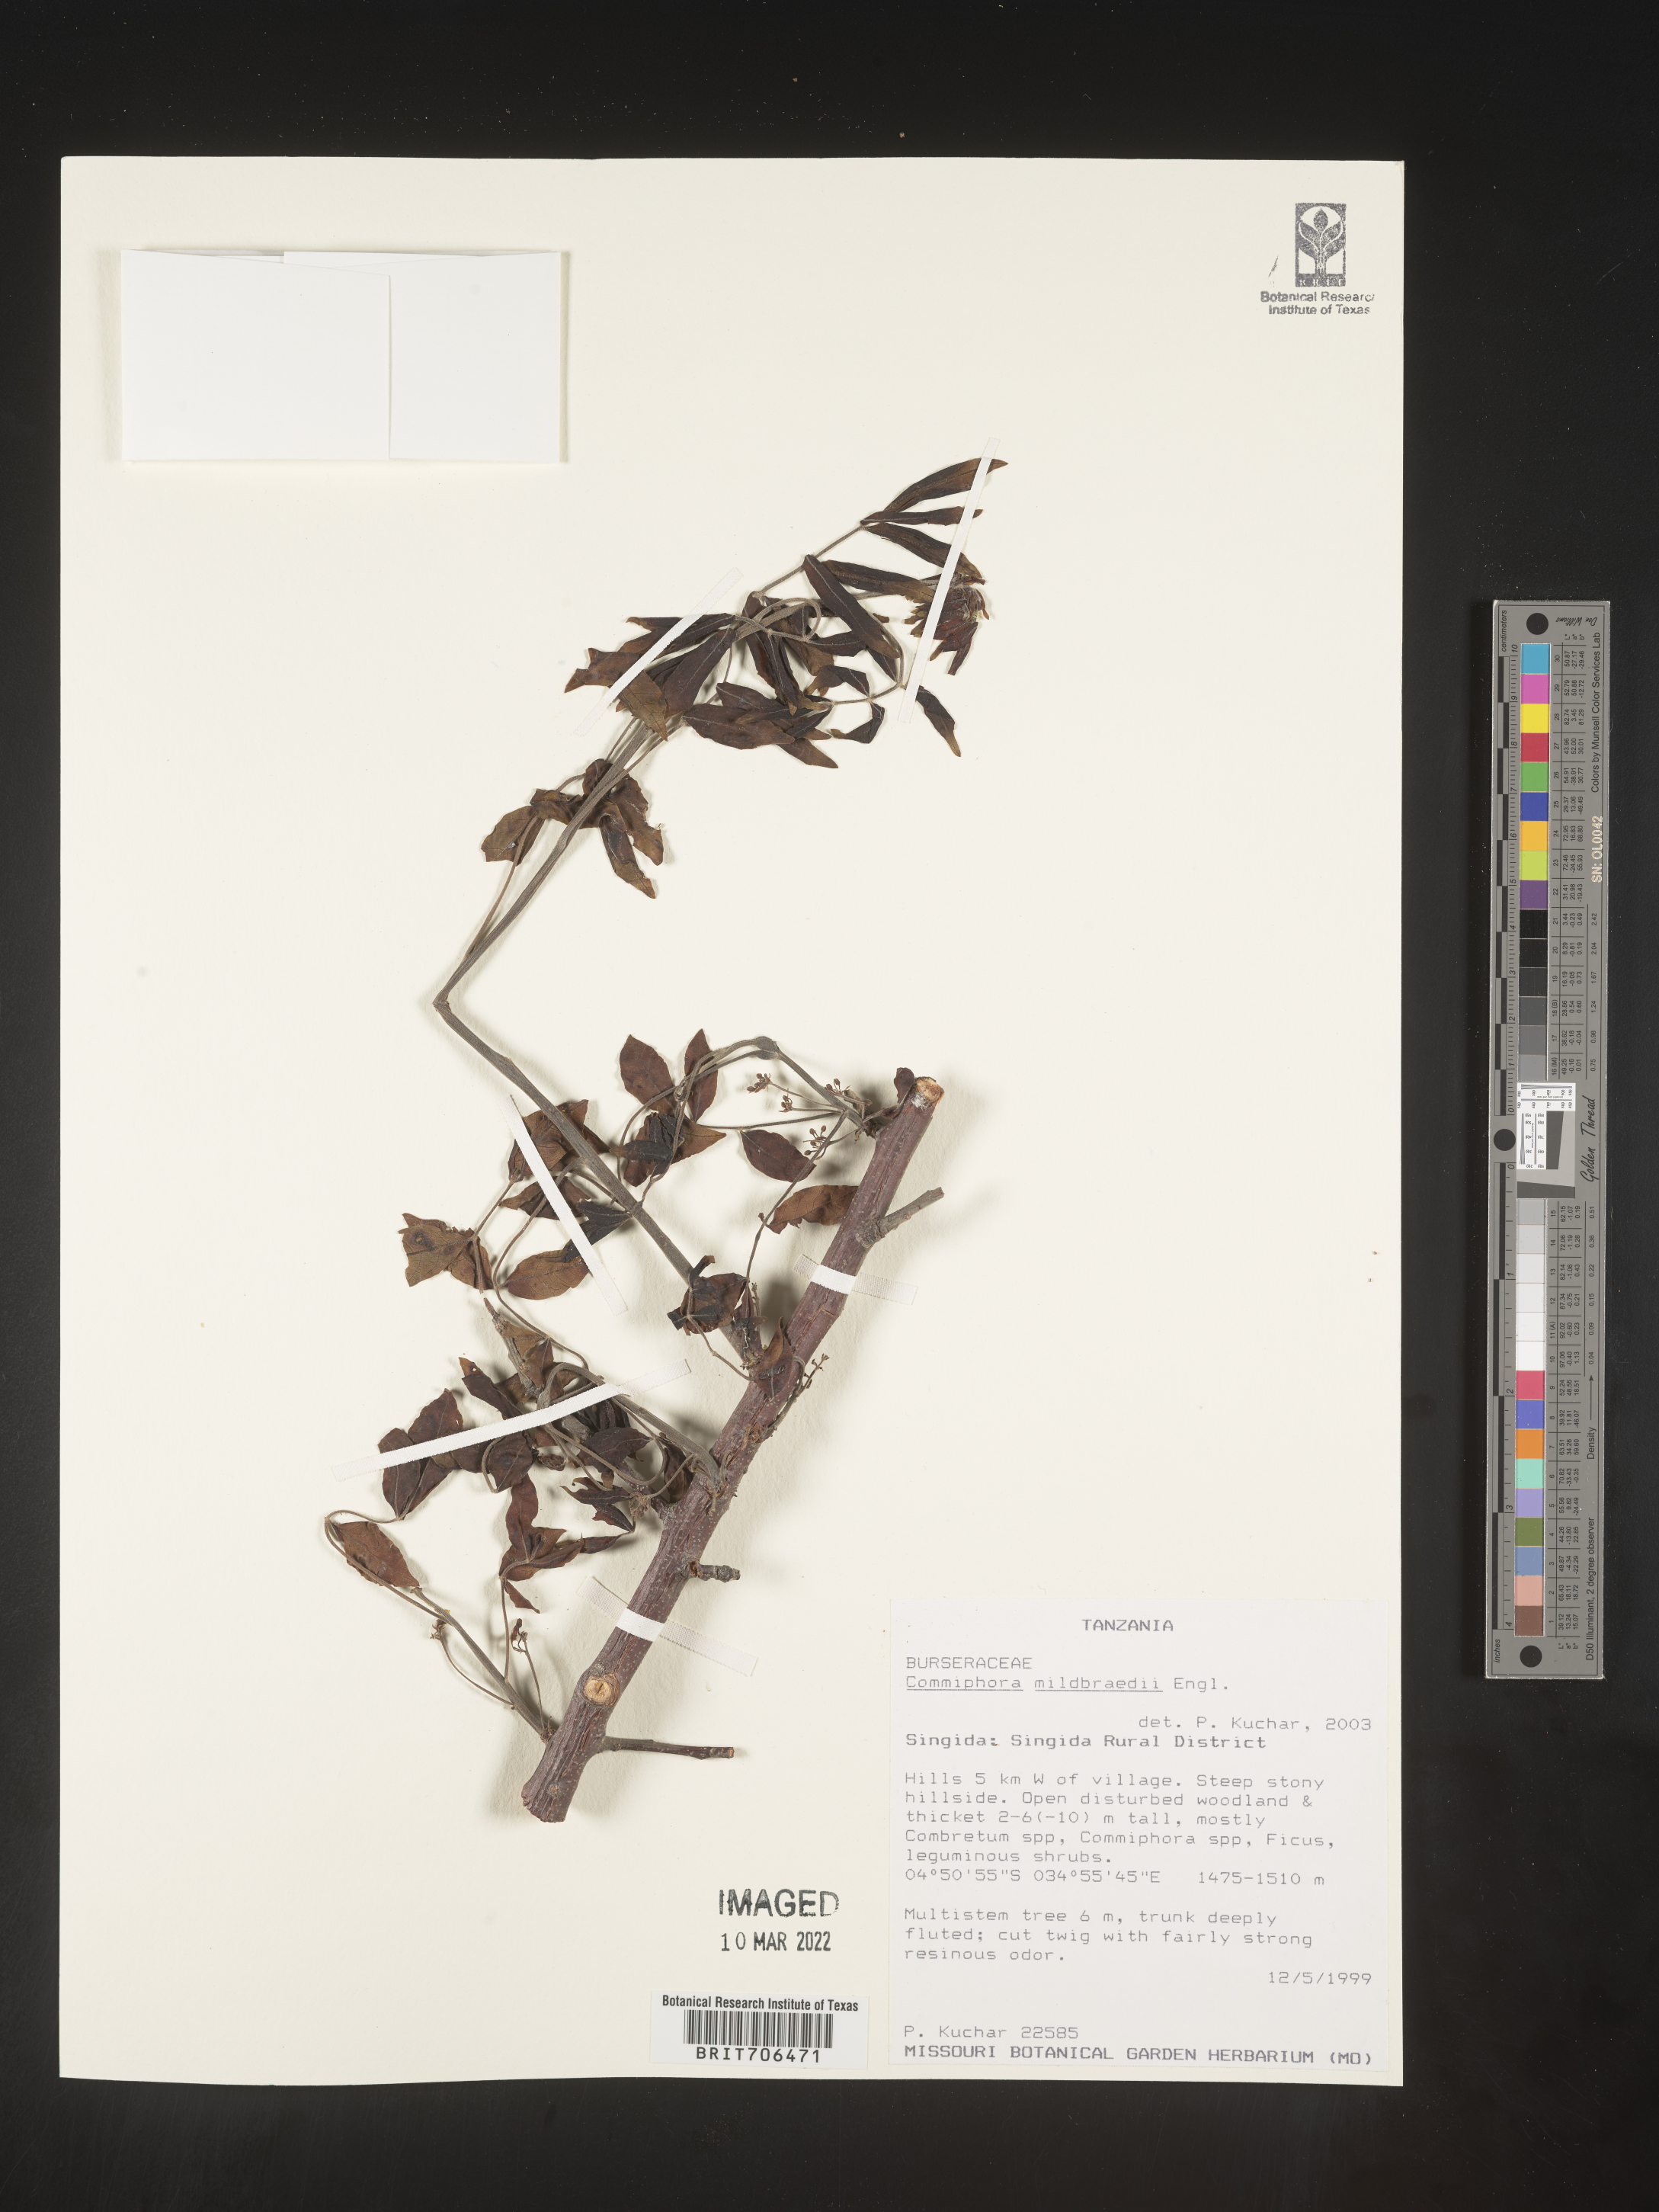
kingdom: Plantae
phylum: Tracheophyta
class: Magnoliopsida
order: Sapindales
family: Burseraceae
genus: Commiphora
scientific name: Commiphora
